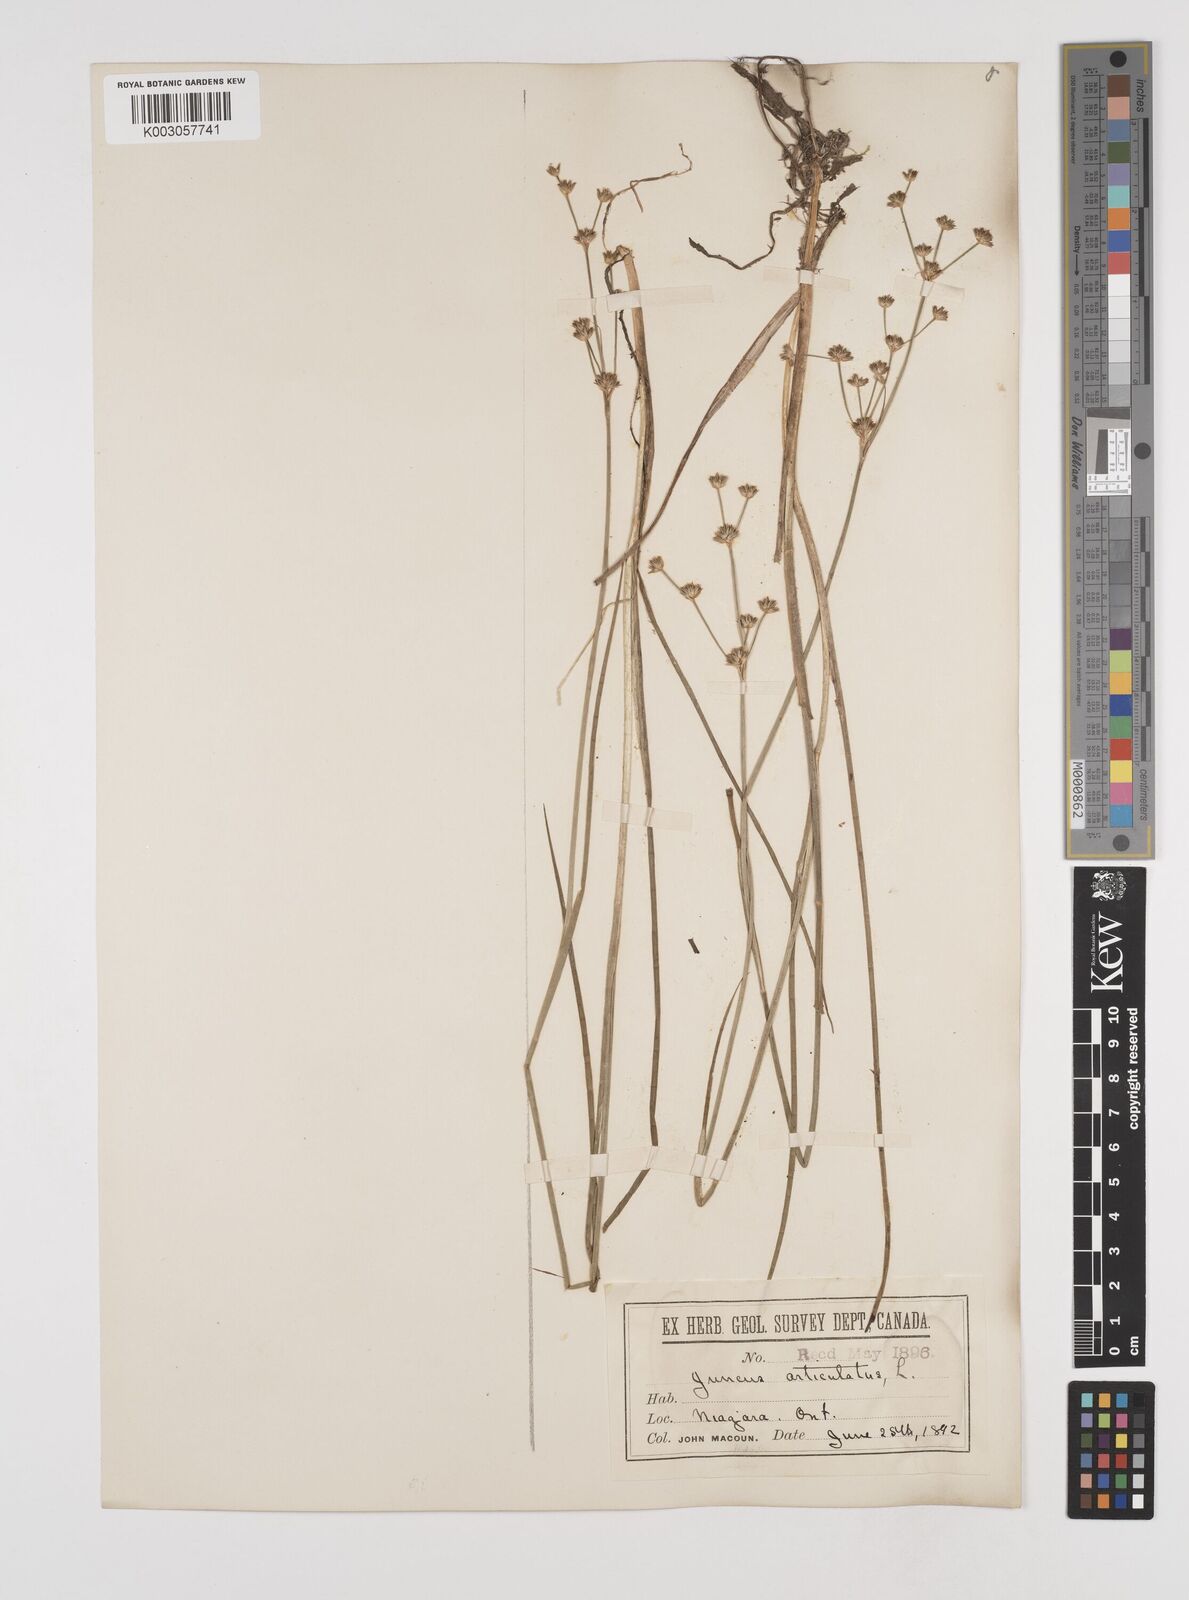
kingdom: Plantae
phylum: Tracheophyta
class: Liliopsida
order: Poales
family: Juncaceae
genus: Juncus
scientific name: Juncus articulatus
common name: Jointed rush
